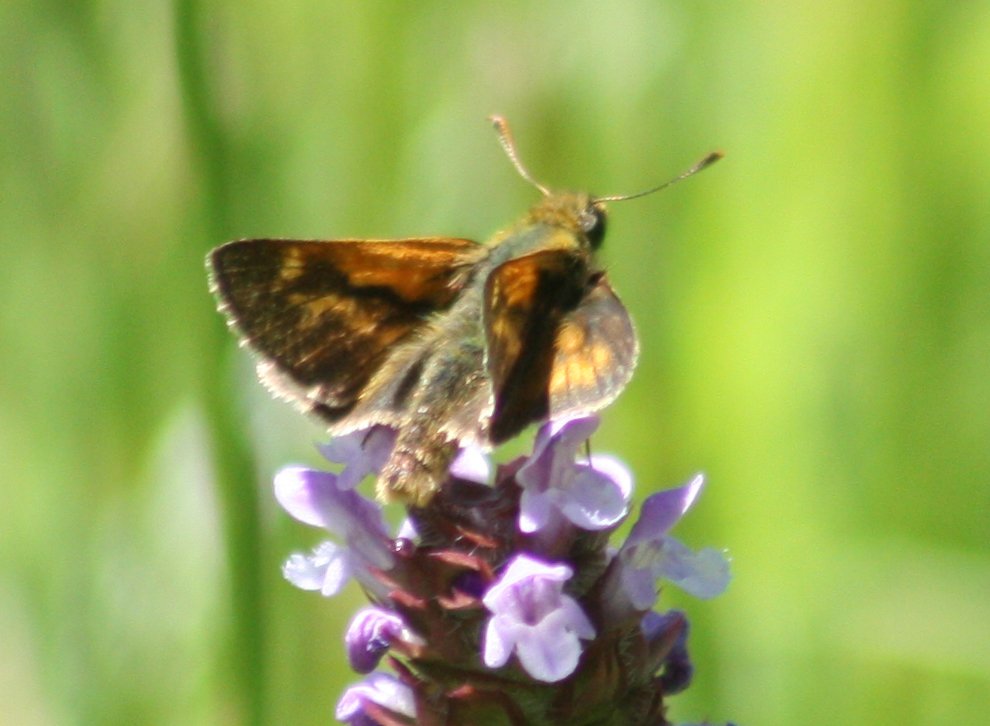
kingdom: Animalia
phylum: Arthropoda
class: Insecta
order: Lepidoptera
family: Hesperiidae
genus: Polites
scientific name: Polites
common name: Long Dash Skipper
